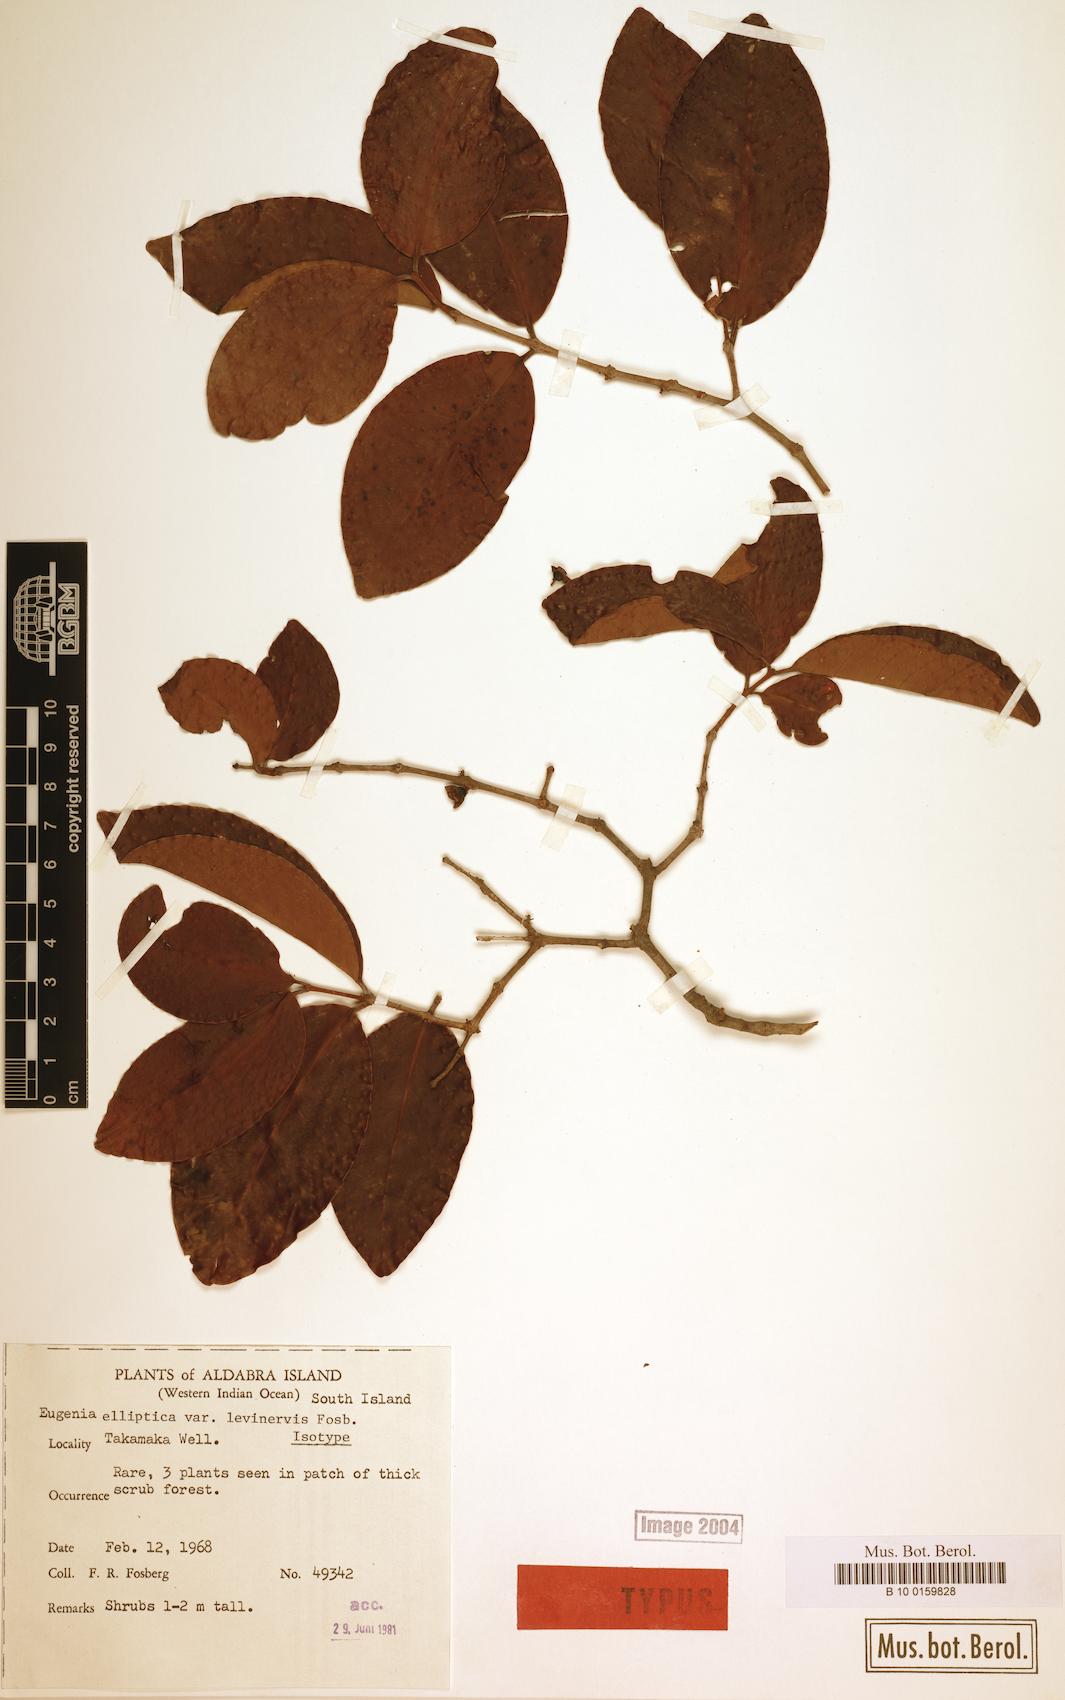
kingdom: Plantae
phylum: Tracheophyta
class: Magnoliopsida
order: Myrtales
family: Myrtaceae
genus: Eugenia
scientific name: Eugenia levinervis
